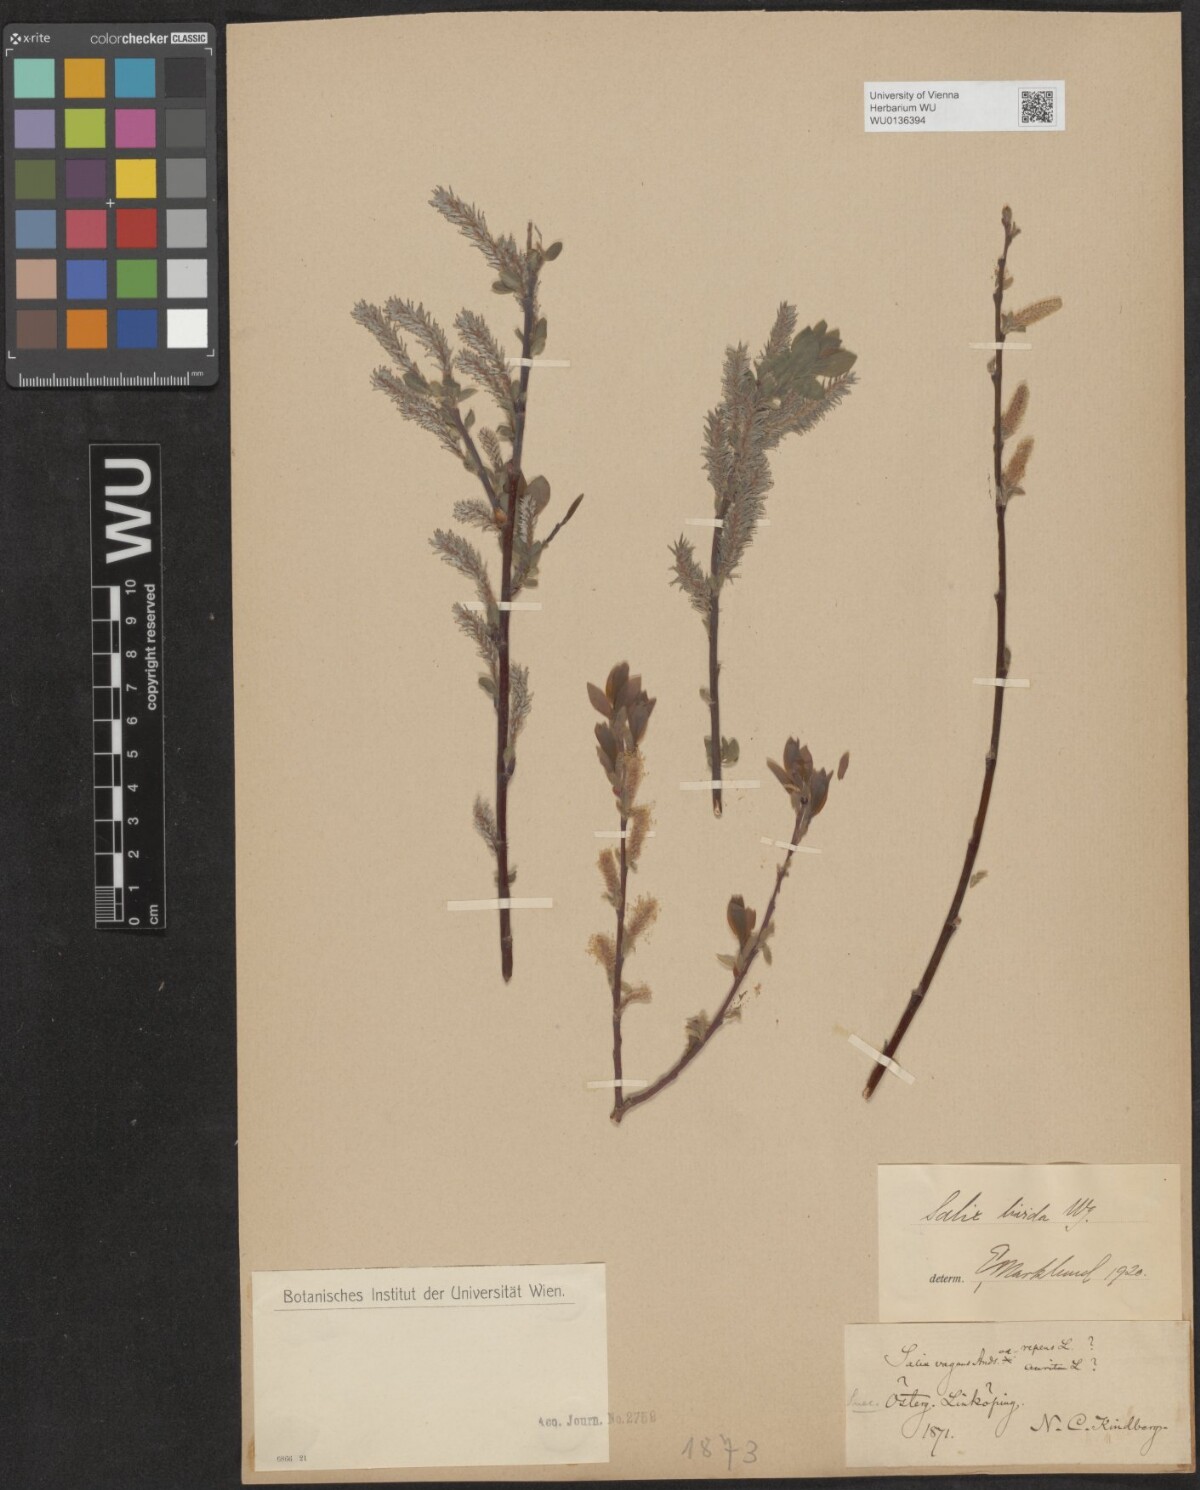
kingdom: Plantae
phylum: Tracheophyta
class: Magnoliopsida
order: Malpighiales
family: Salicaceae
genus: Salix
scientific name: Salix lanata
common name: Woolly willow
